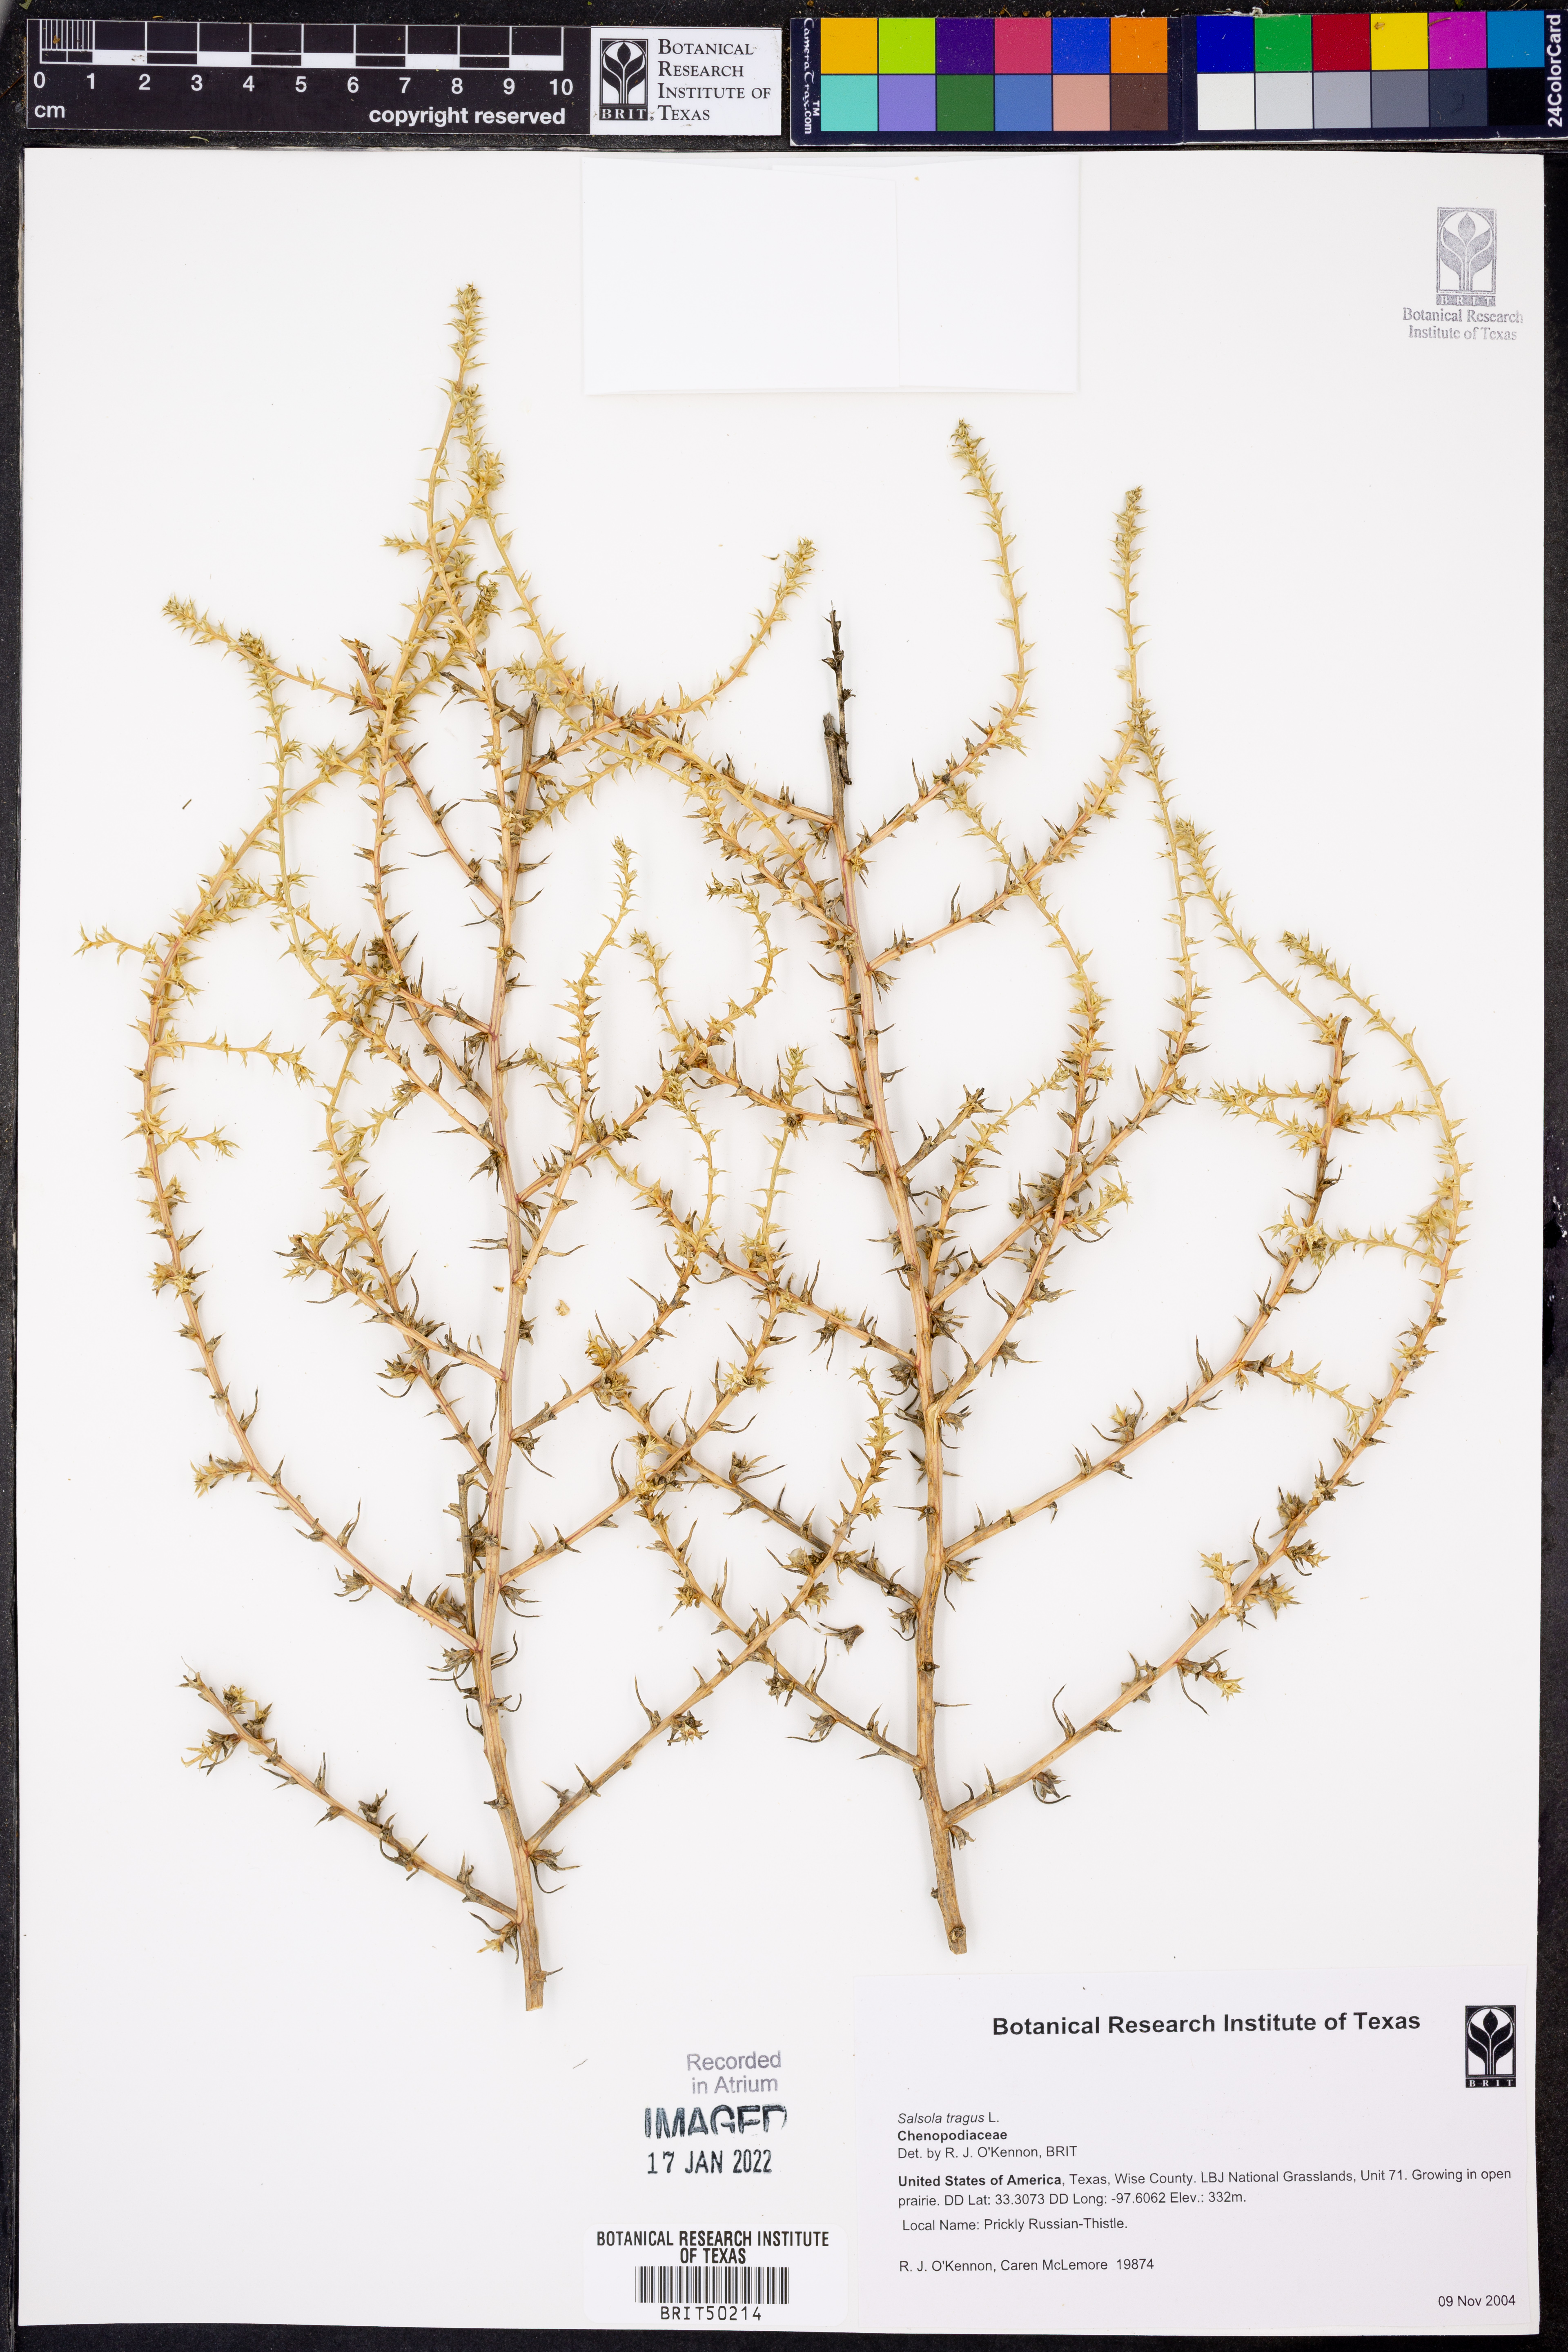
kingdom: Plantae
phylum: Tracheophyta
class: Magnoliopsida
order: Caryophyllales
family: Amaranthaceae
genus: Salsola
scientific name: Salsola tragus
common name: Prickly russian thistle
